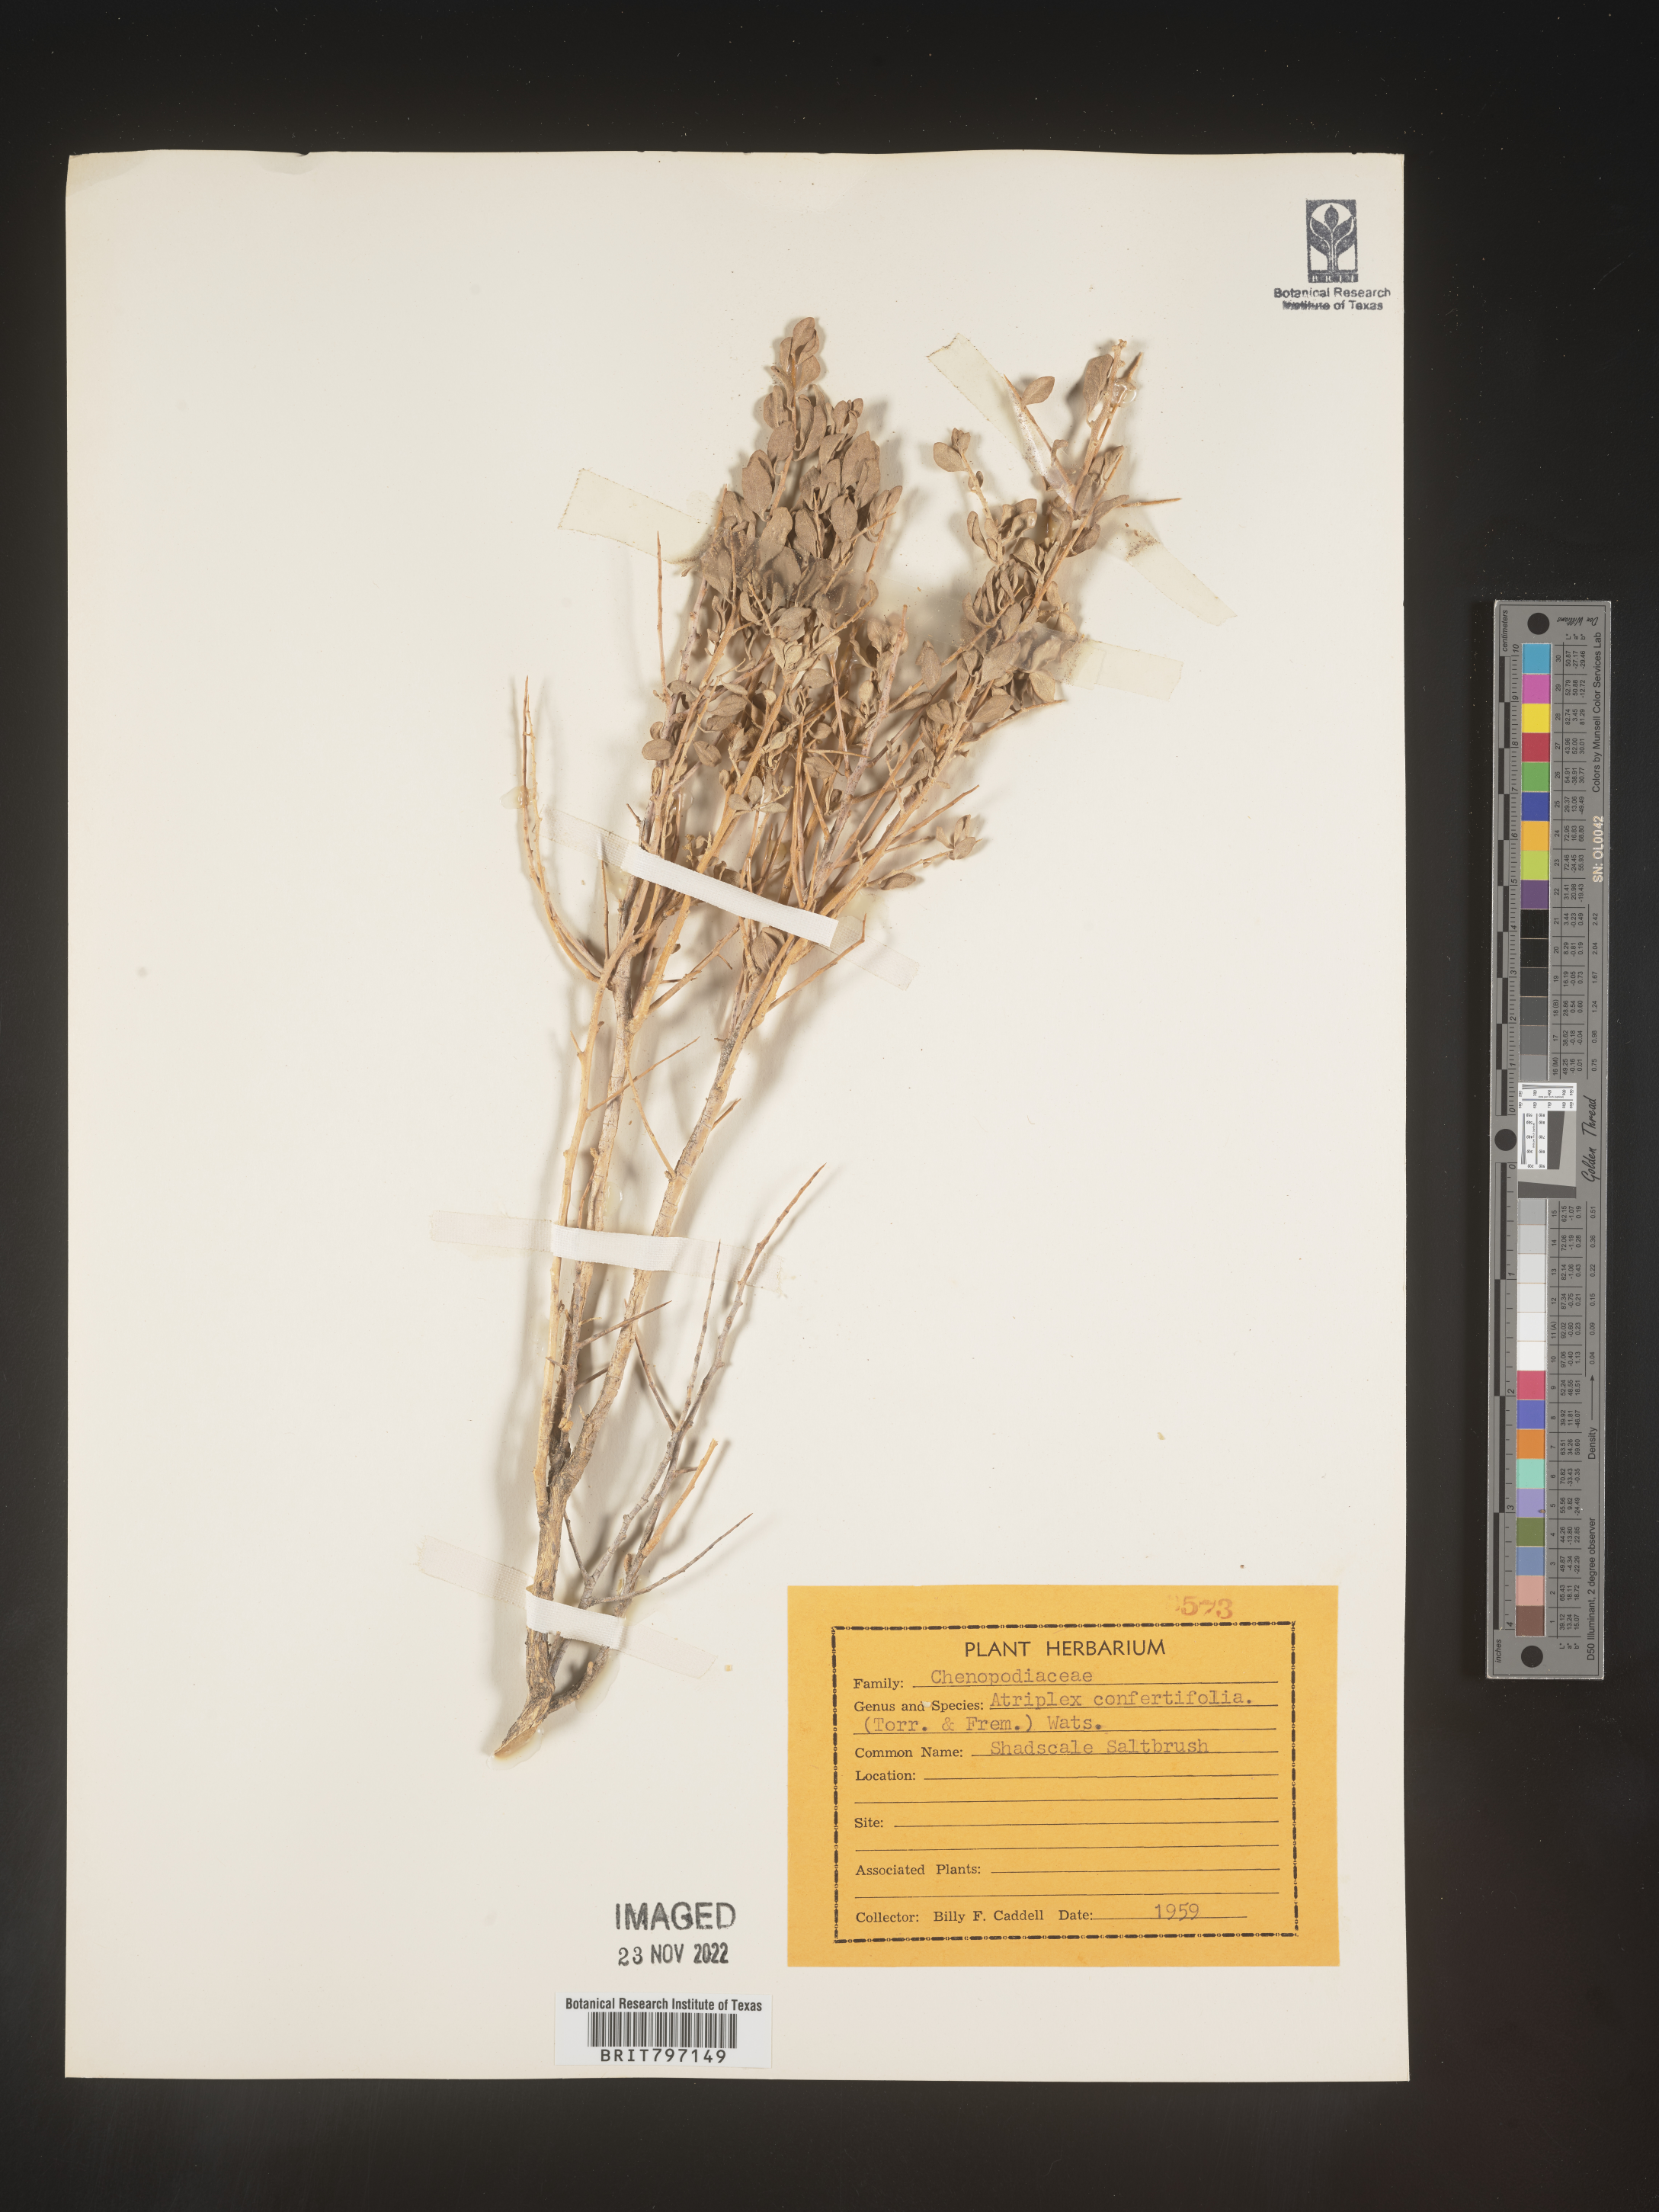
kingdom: Plantae
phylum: Tracheophyta
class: Magnoliopsida
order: Caryophyllales
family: Amaranthaceae
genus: Atriplex
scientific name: Atriplex confertifolia
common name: Shadscale
